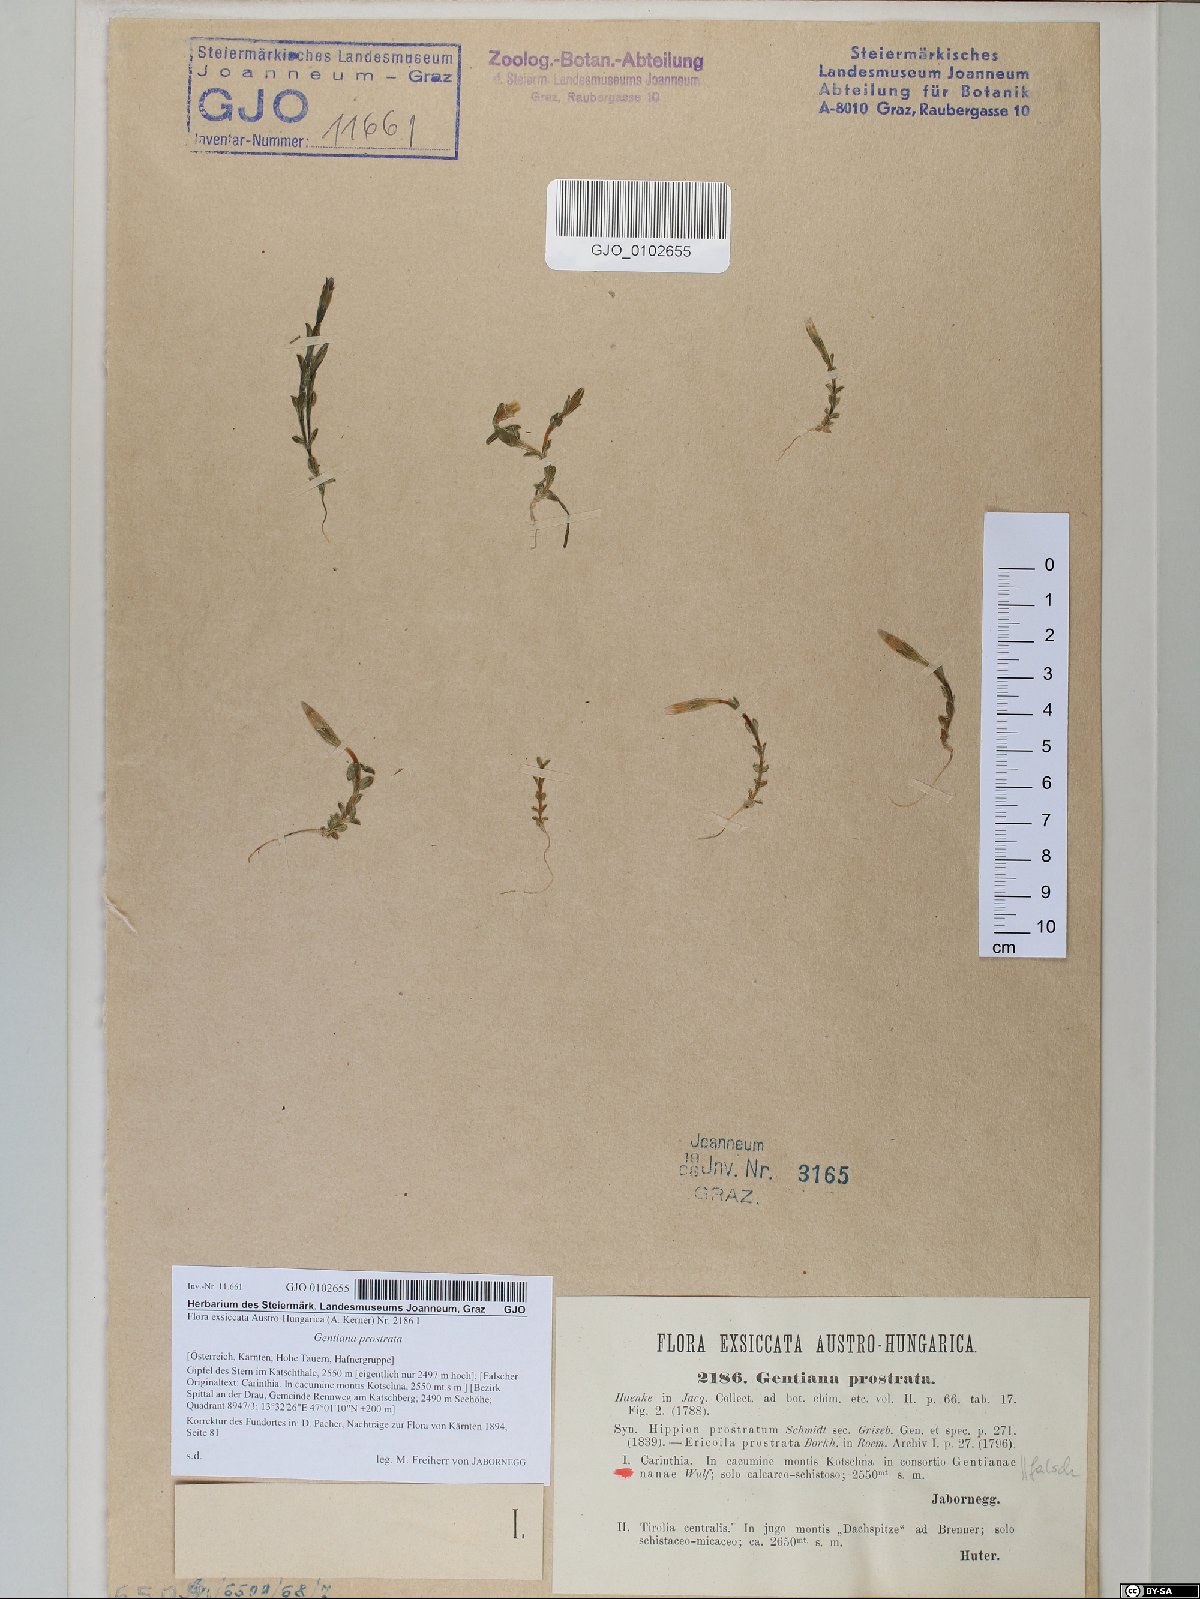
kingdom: Plantae
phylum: Tracheophyta
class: Magnoliopsida
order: Gentianales
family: Gentianaceae
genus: Gentiana
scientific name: Gentiana prostrata
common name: Moss gentian
